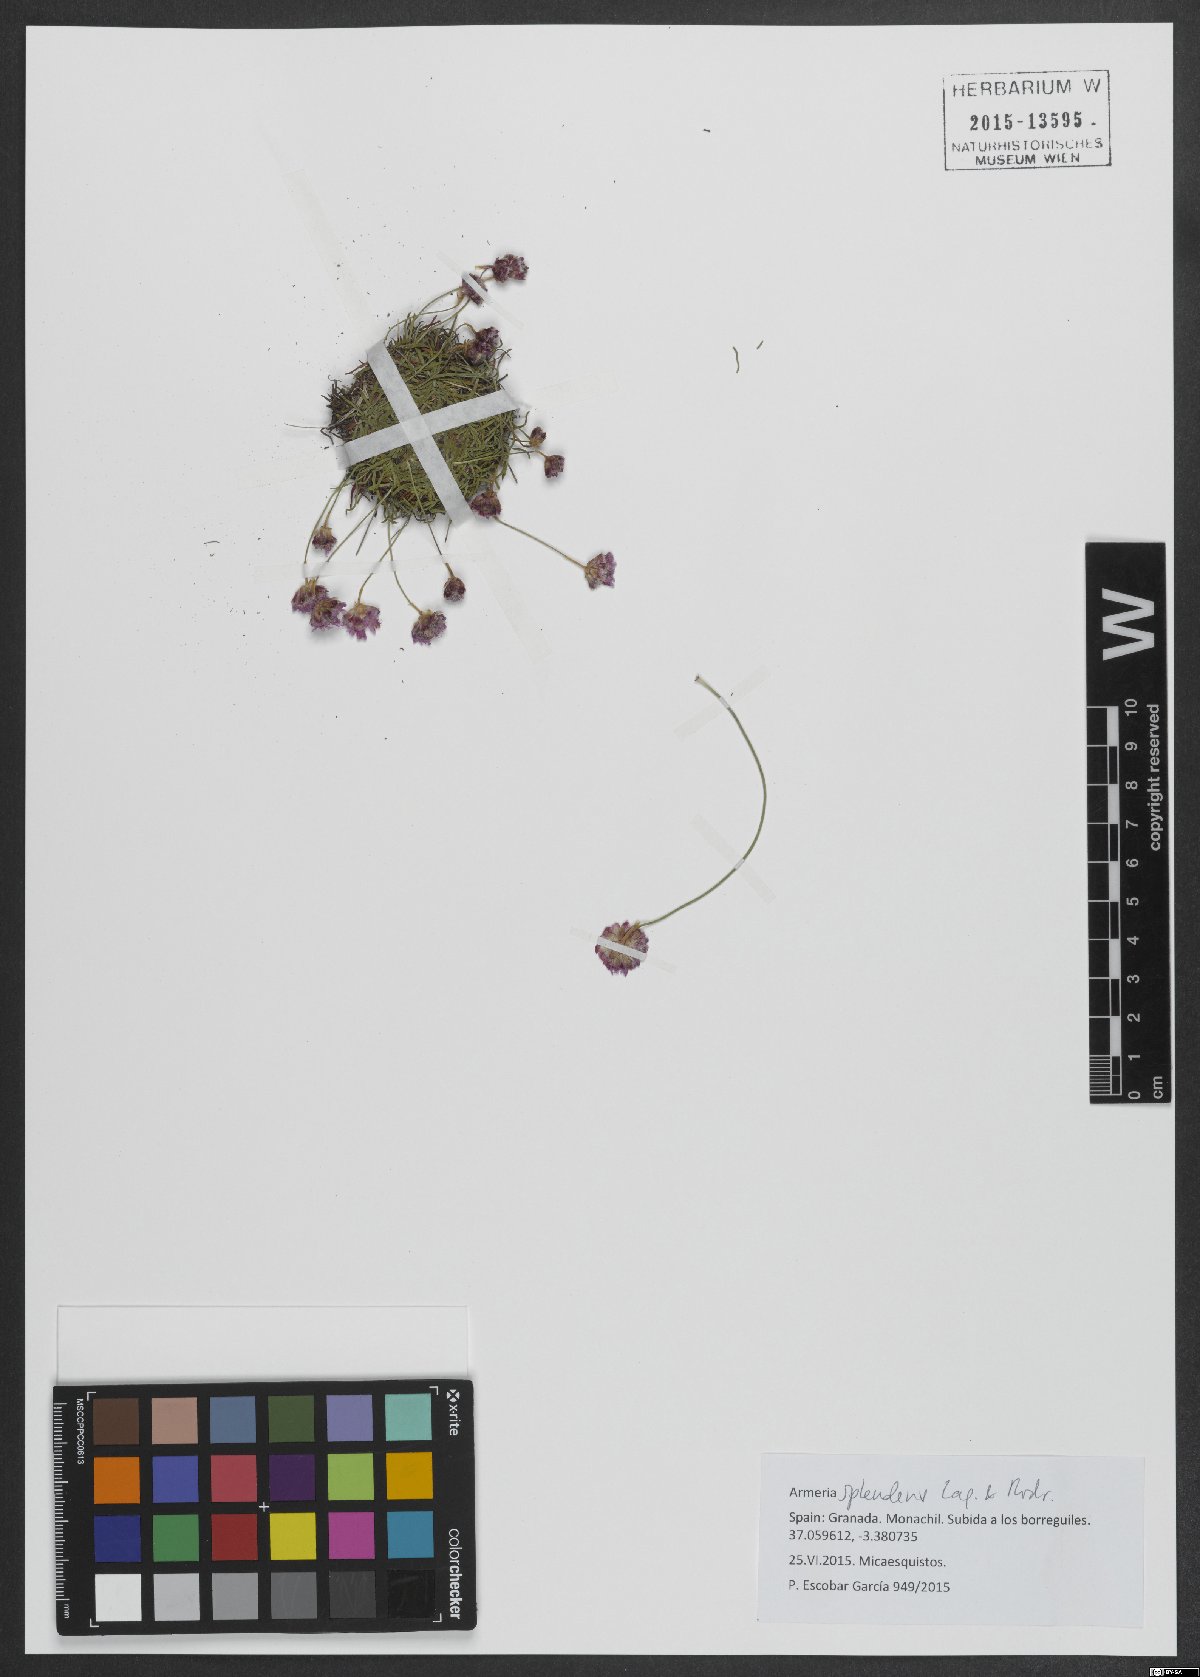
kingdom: Plantae
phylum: Tracheophyta
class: Magnoliopsida
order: Caryophyllales
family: Plumbaginaceae
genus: Armeria
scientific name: Armeria splendens
